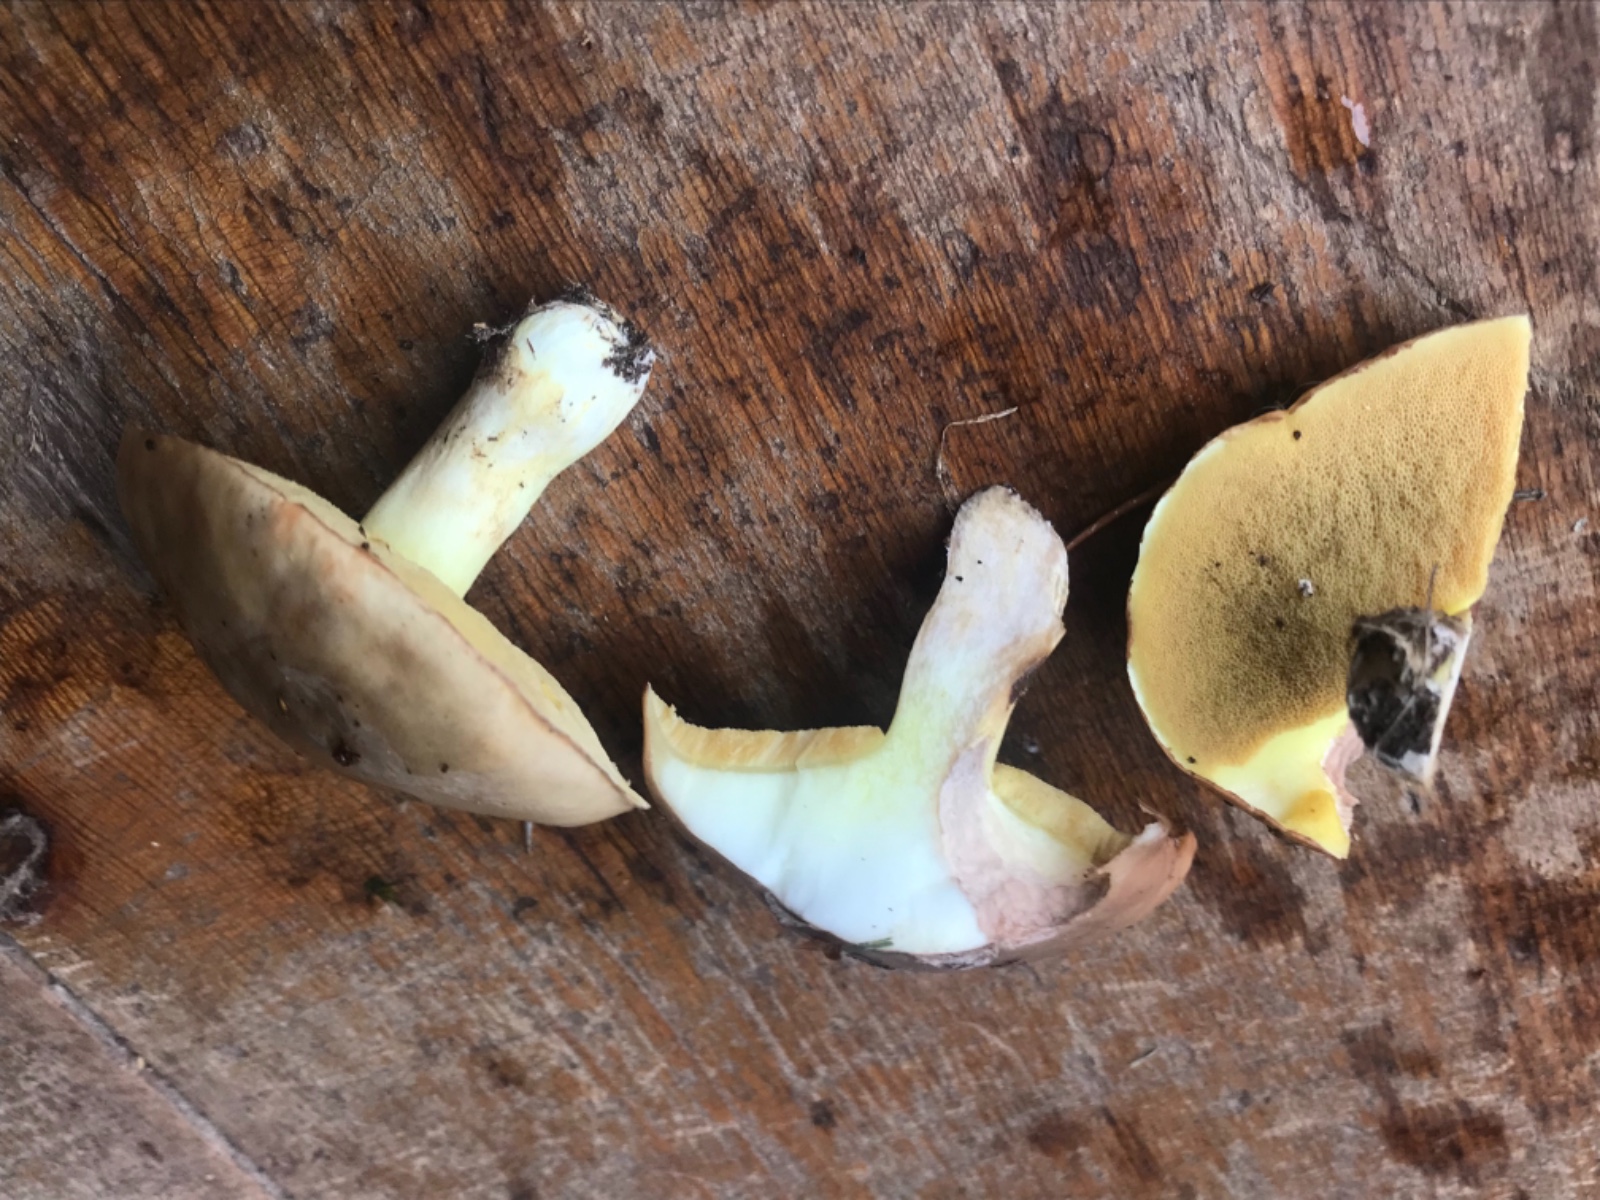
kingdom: Fungi
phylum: Basidiomycota
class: Agaricomycetes
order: Boletales
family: Suillaceae
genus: Suillus
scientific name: Suillus granulatus
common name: kornet slimrørhat
